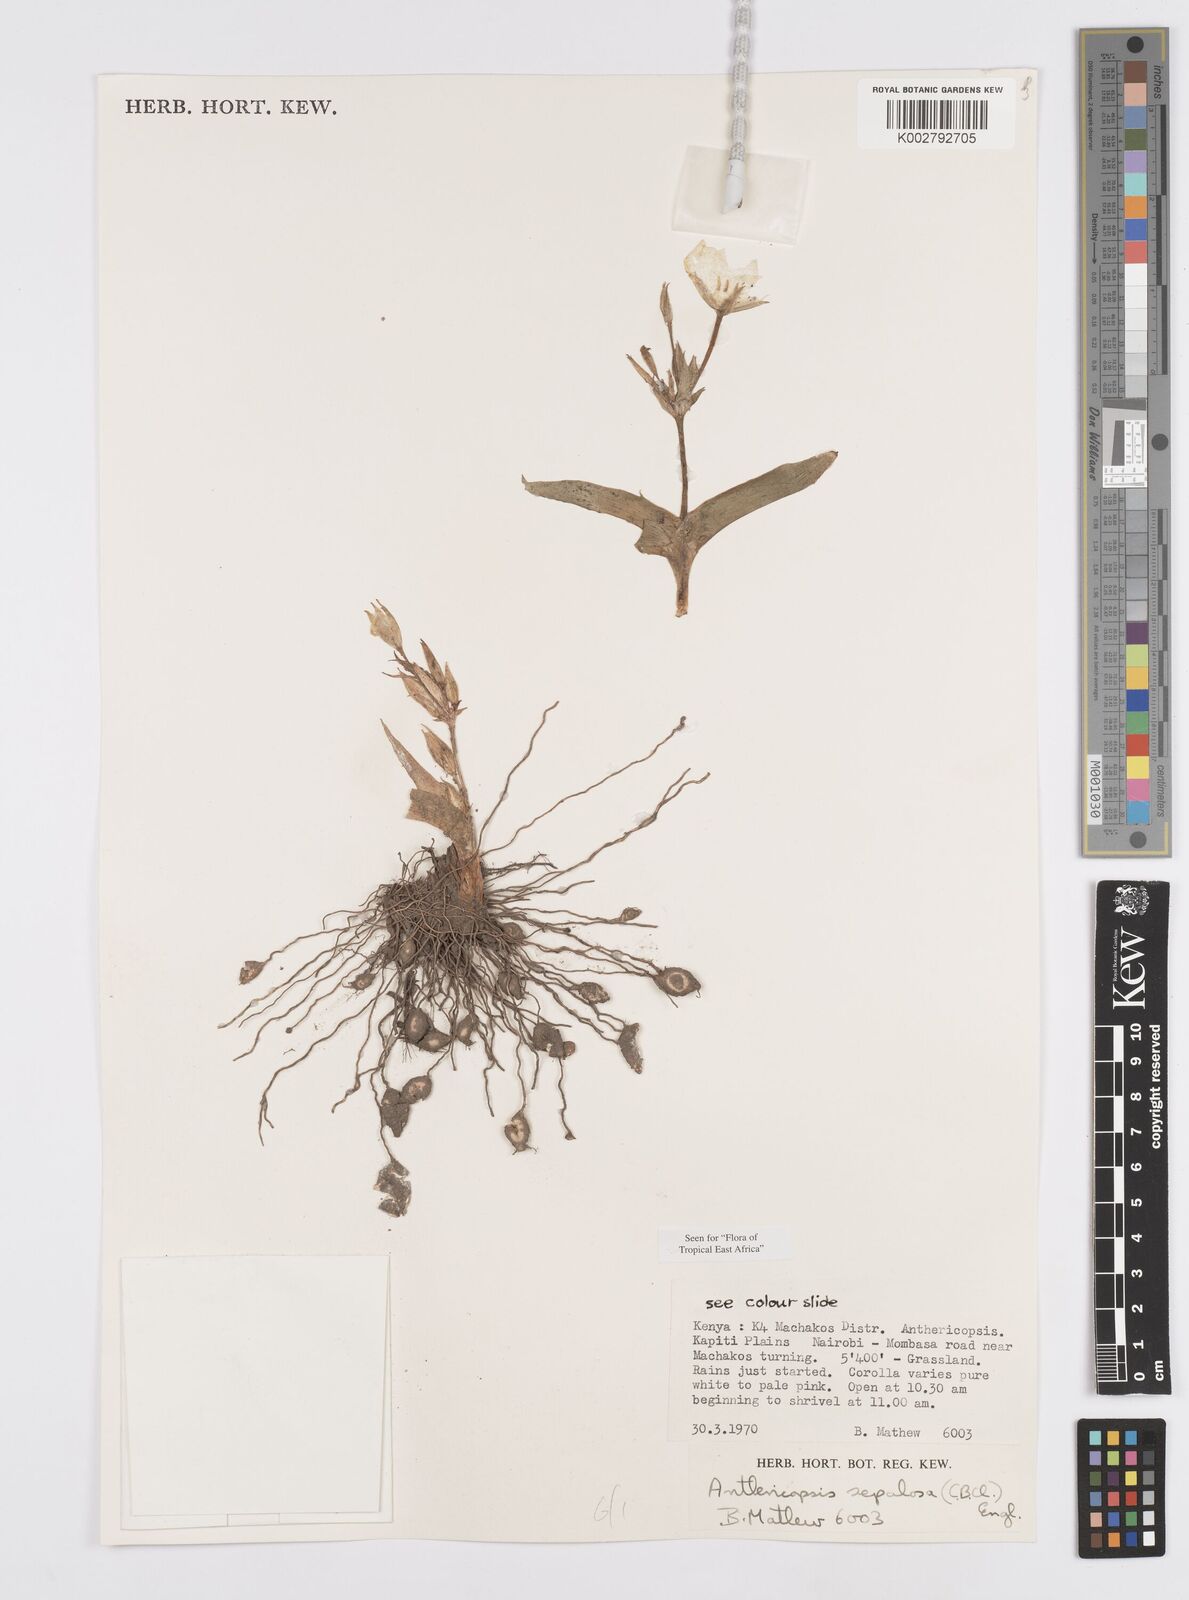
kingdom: Plantae
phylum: Tracheophyta
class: Liliopsida
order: Commelinales
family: Commelinaceae
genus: Anthericopsis
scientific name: Anthericopsis sepalosa
